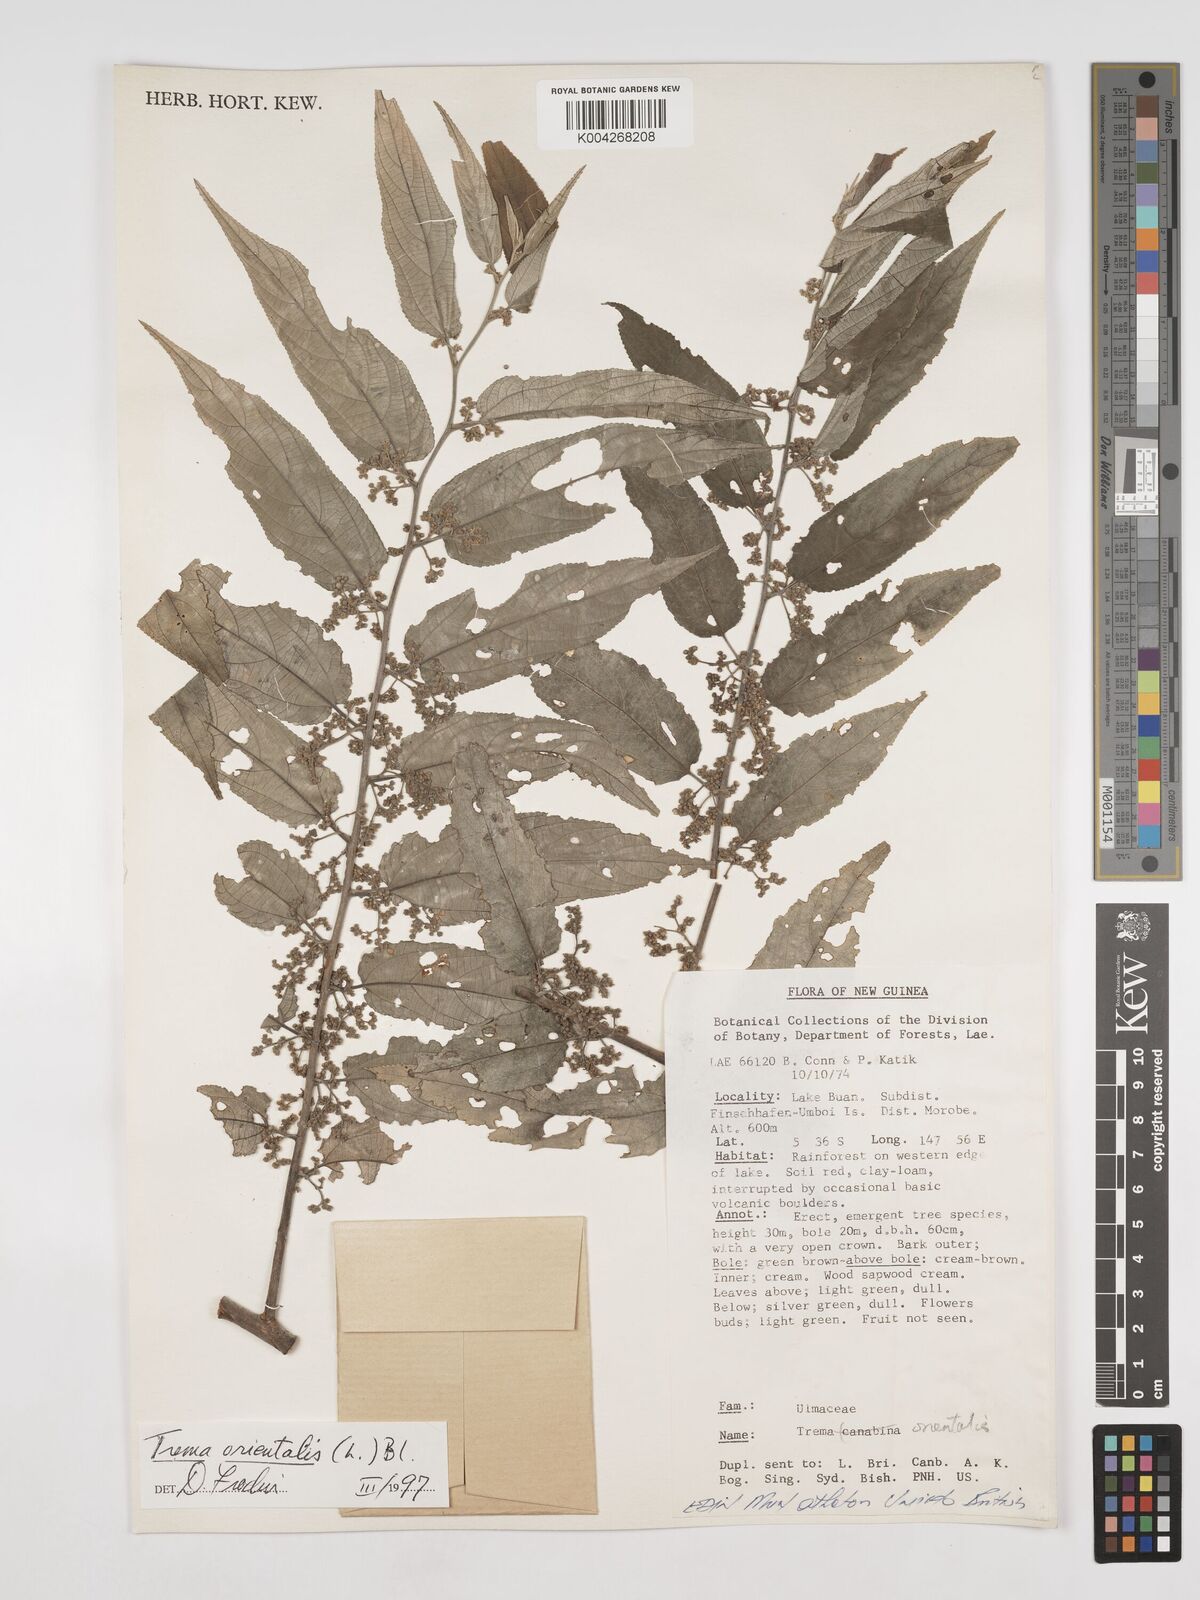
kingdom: Plantae
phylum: Tracheophyta
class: Magnoliopsida
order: Rosales
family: Cannabaceae
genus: Trema
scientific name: Trema orientale
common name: Indian charcoal tree
